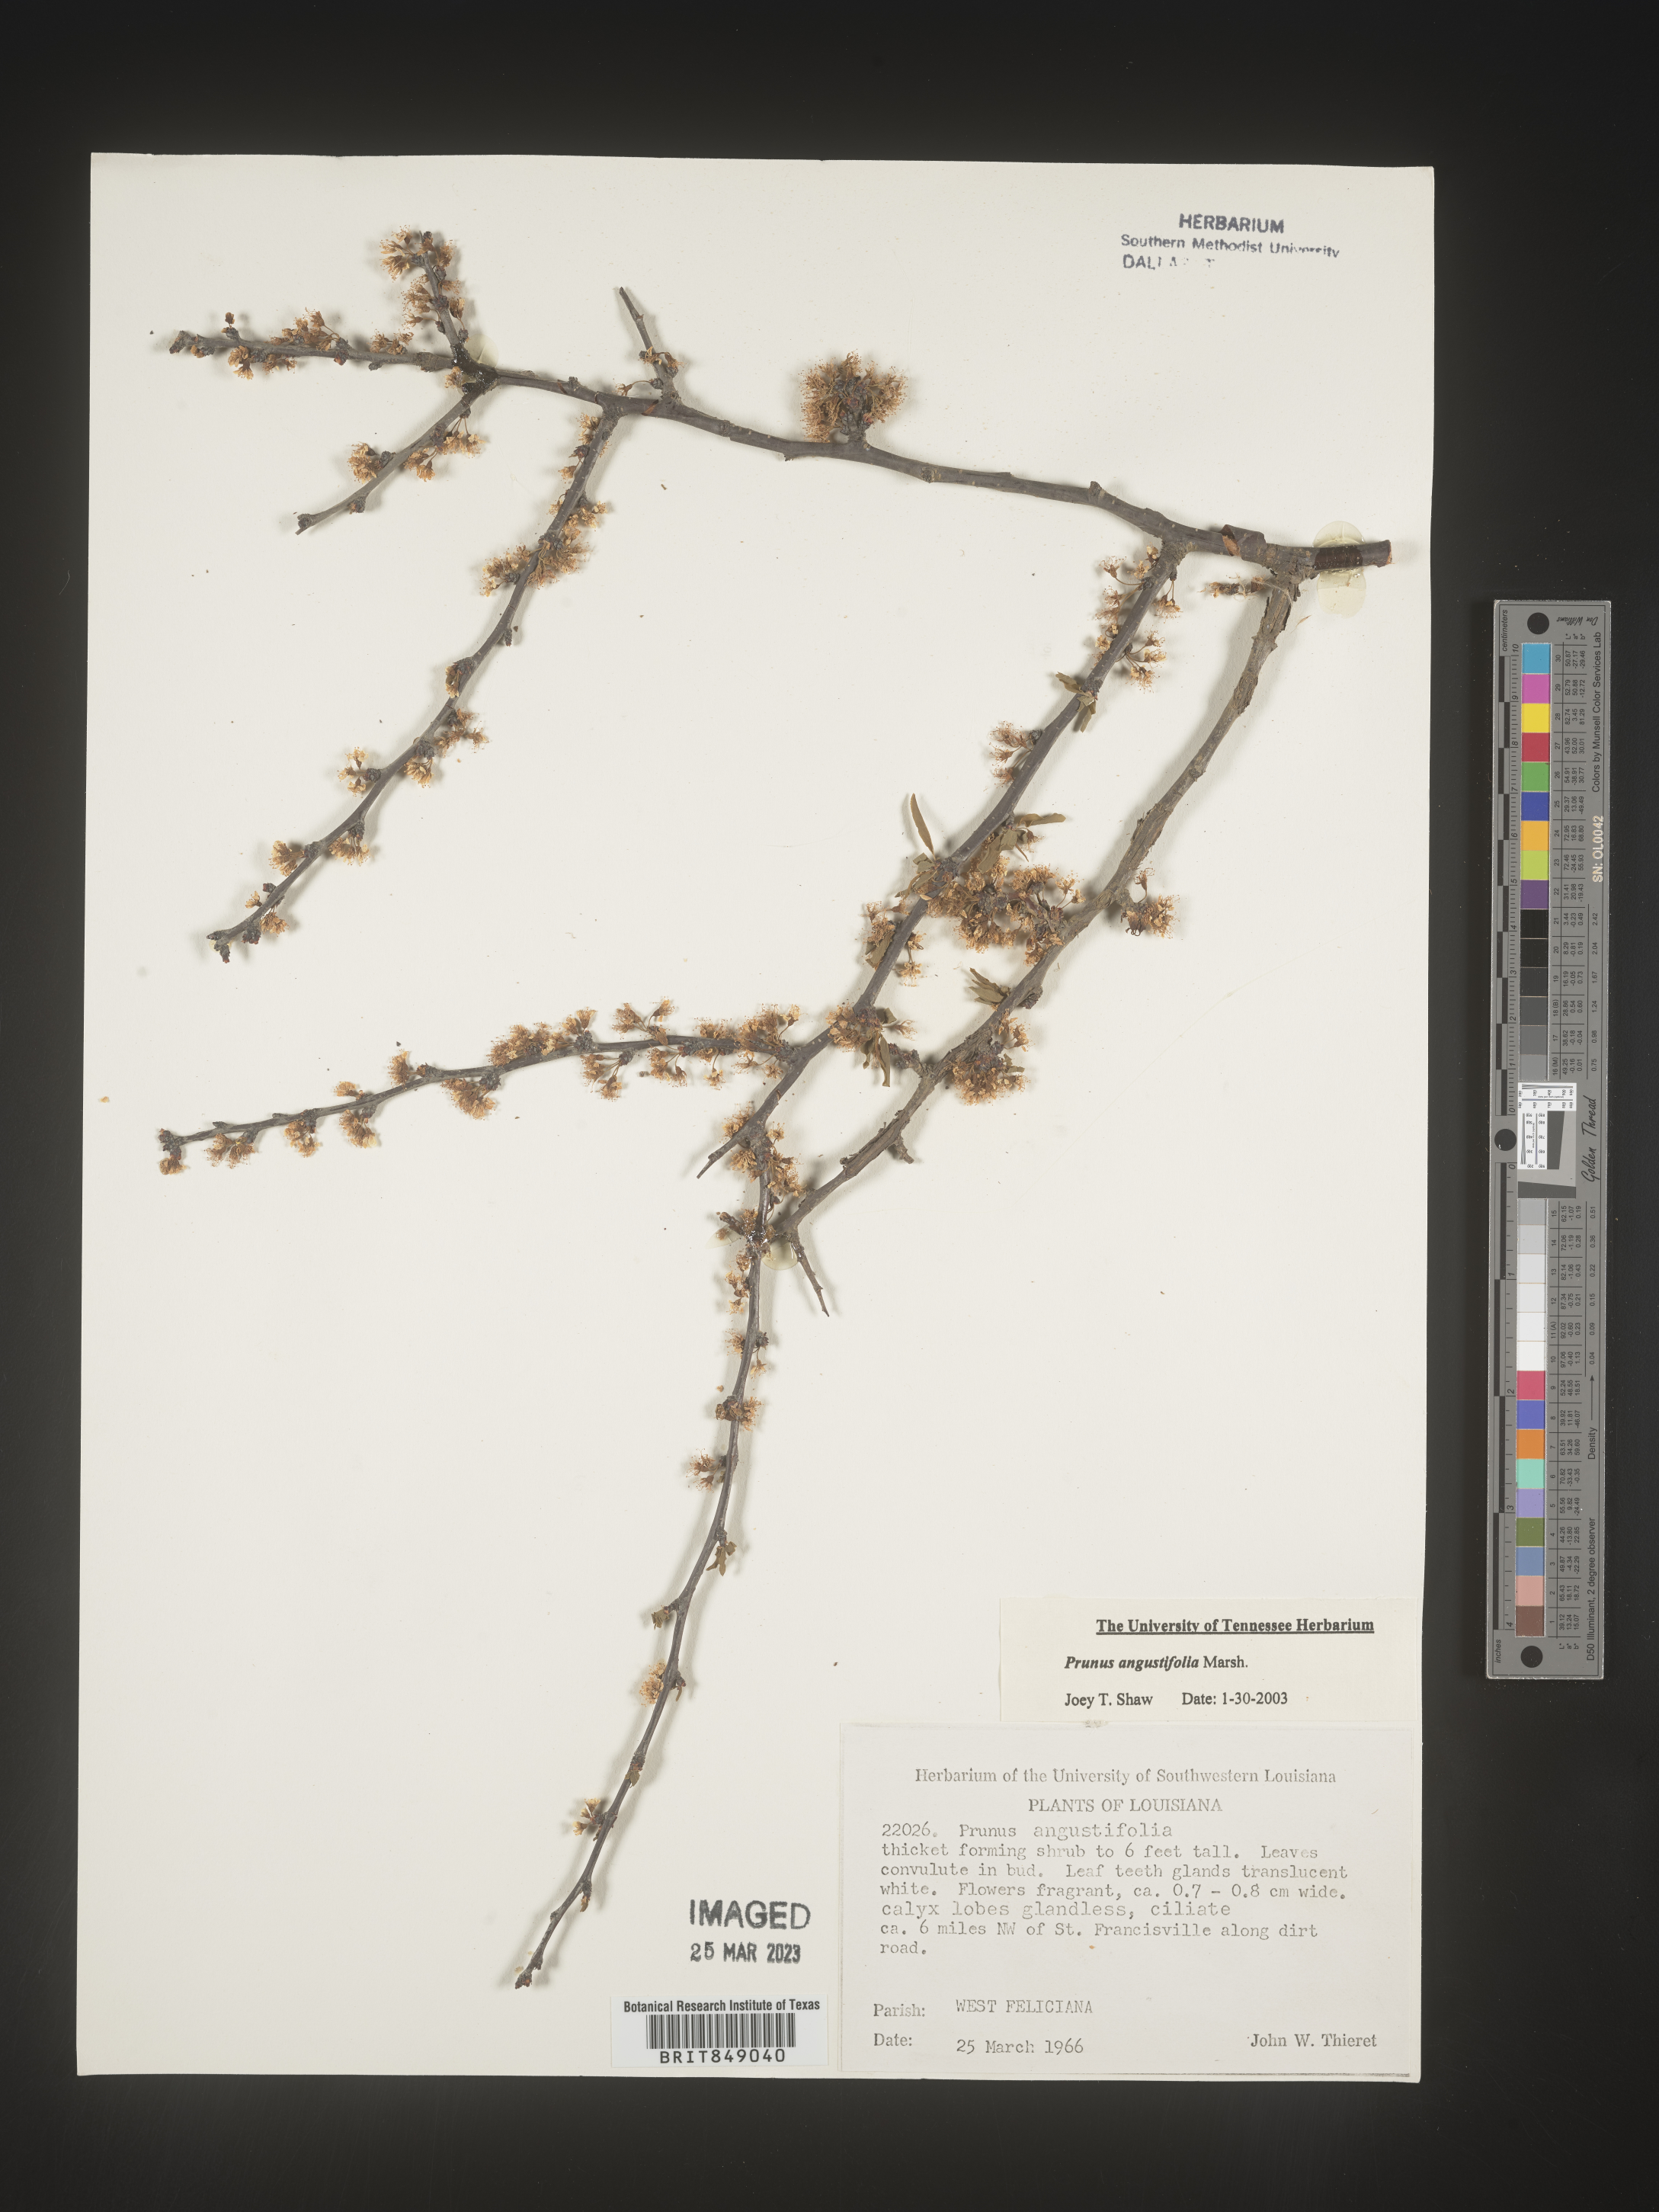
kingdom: Plantae
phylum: Tracheophyta
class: Magnoliopsida
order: Rosales
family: Rosaceae
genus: Prunus
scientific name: Prunus angustifolia
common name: Cherokee plum
